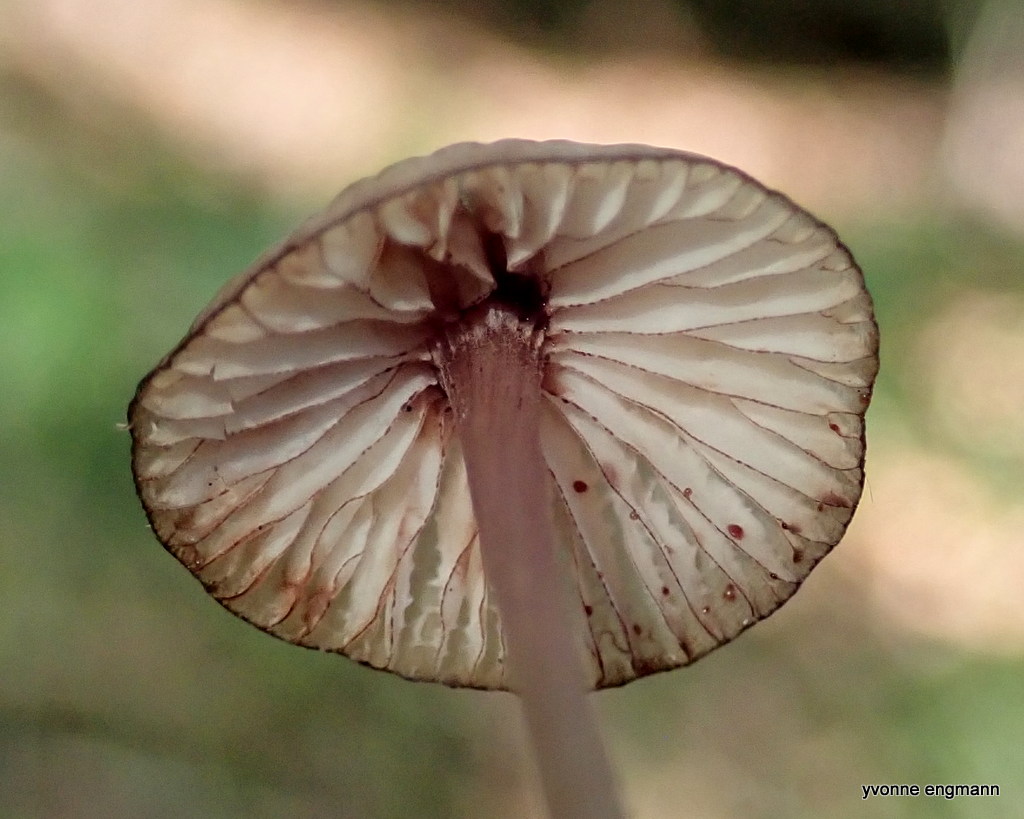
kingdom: Fungi
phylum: Basidiomycota
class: Agaricomycetes
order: Agaricales
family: Mycenaceae
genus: Mycena
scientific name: Mycena sanguinolenta
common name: rødmælket huesvamp
